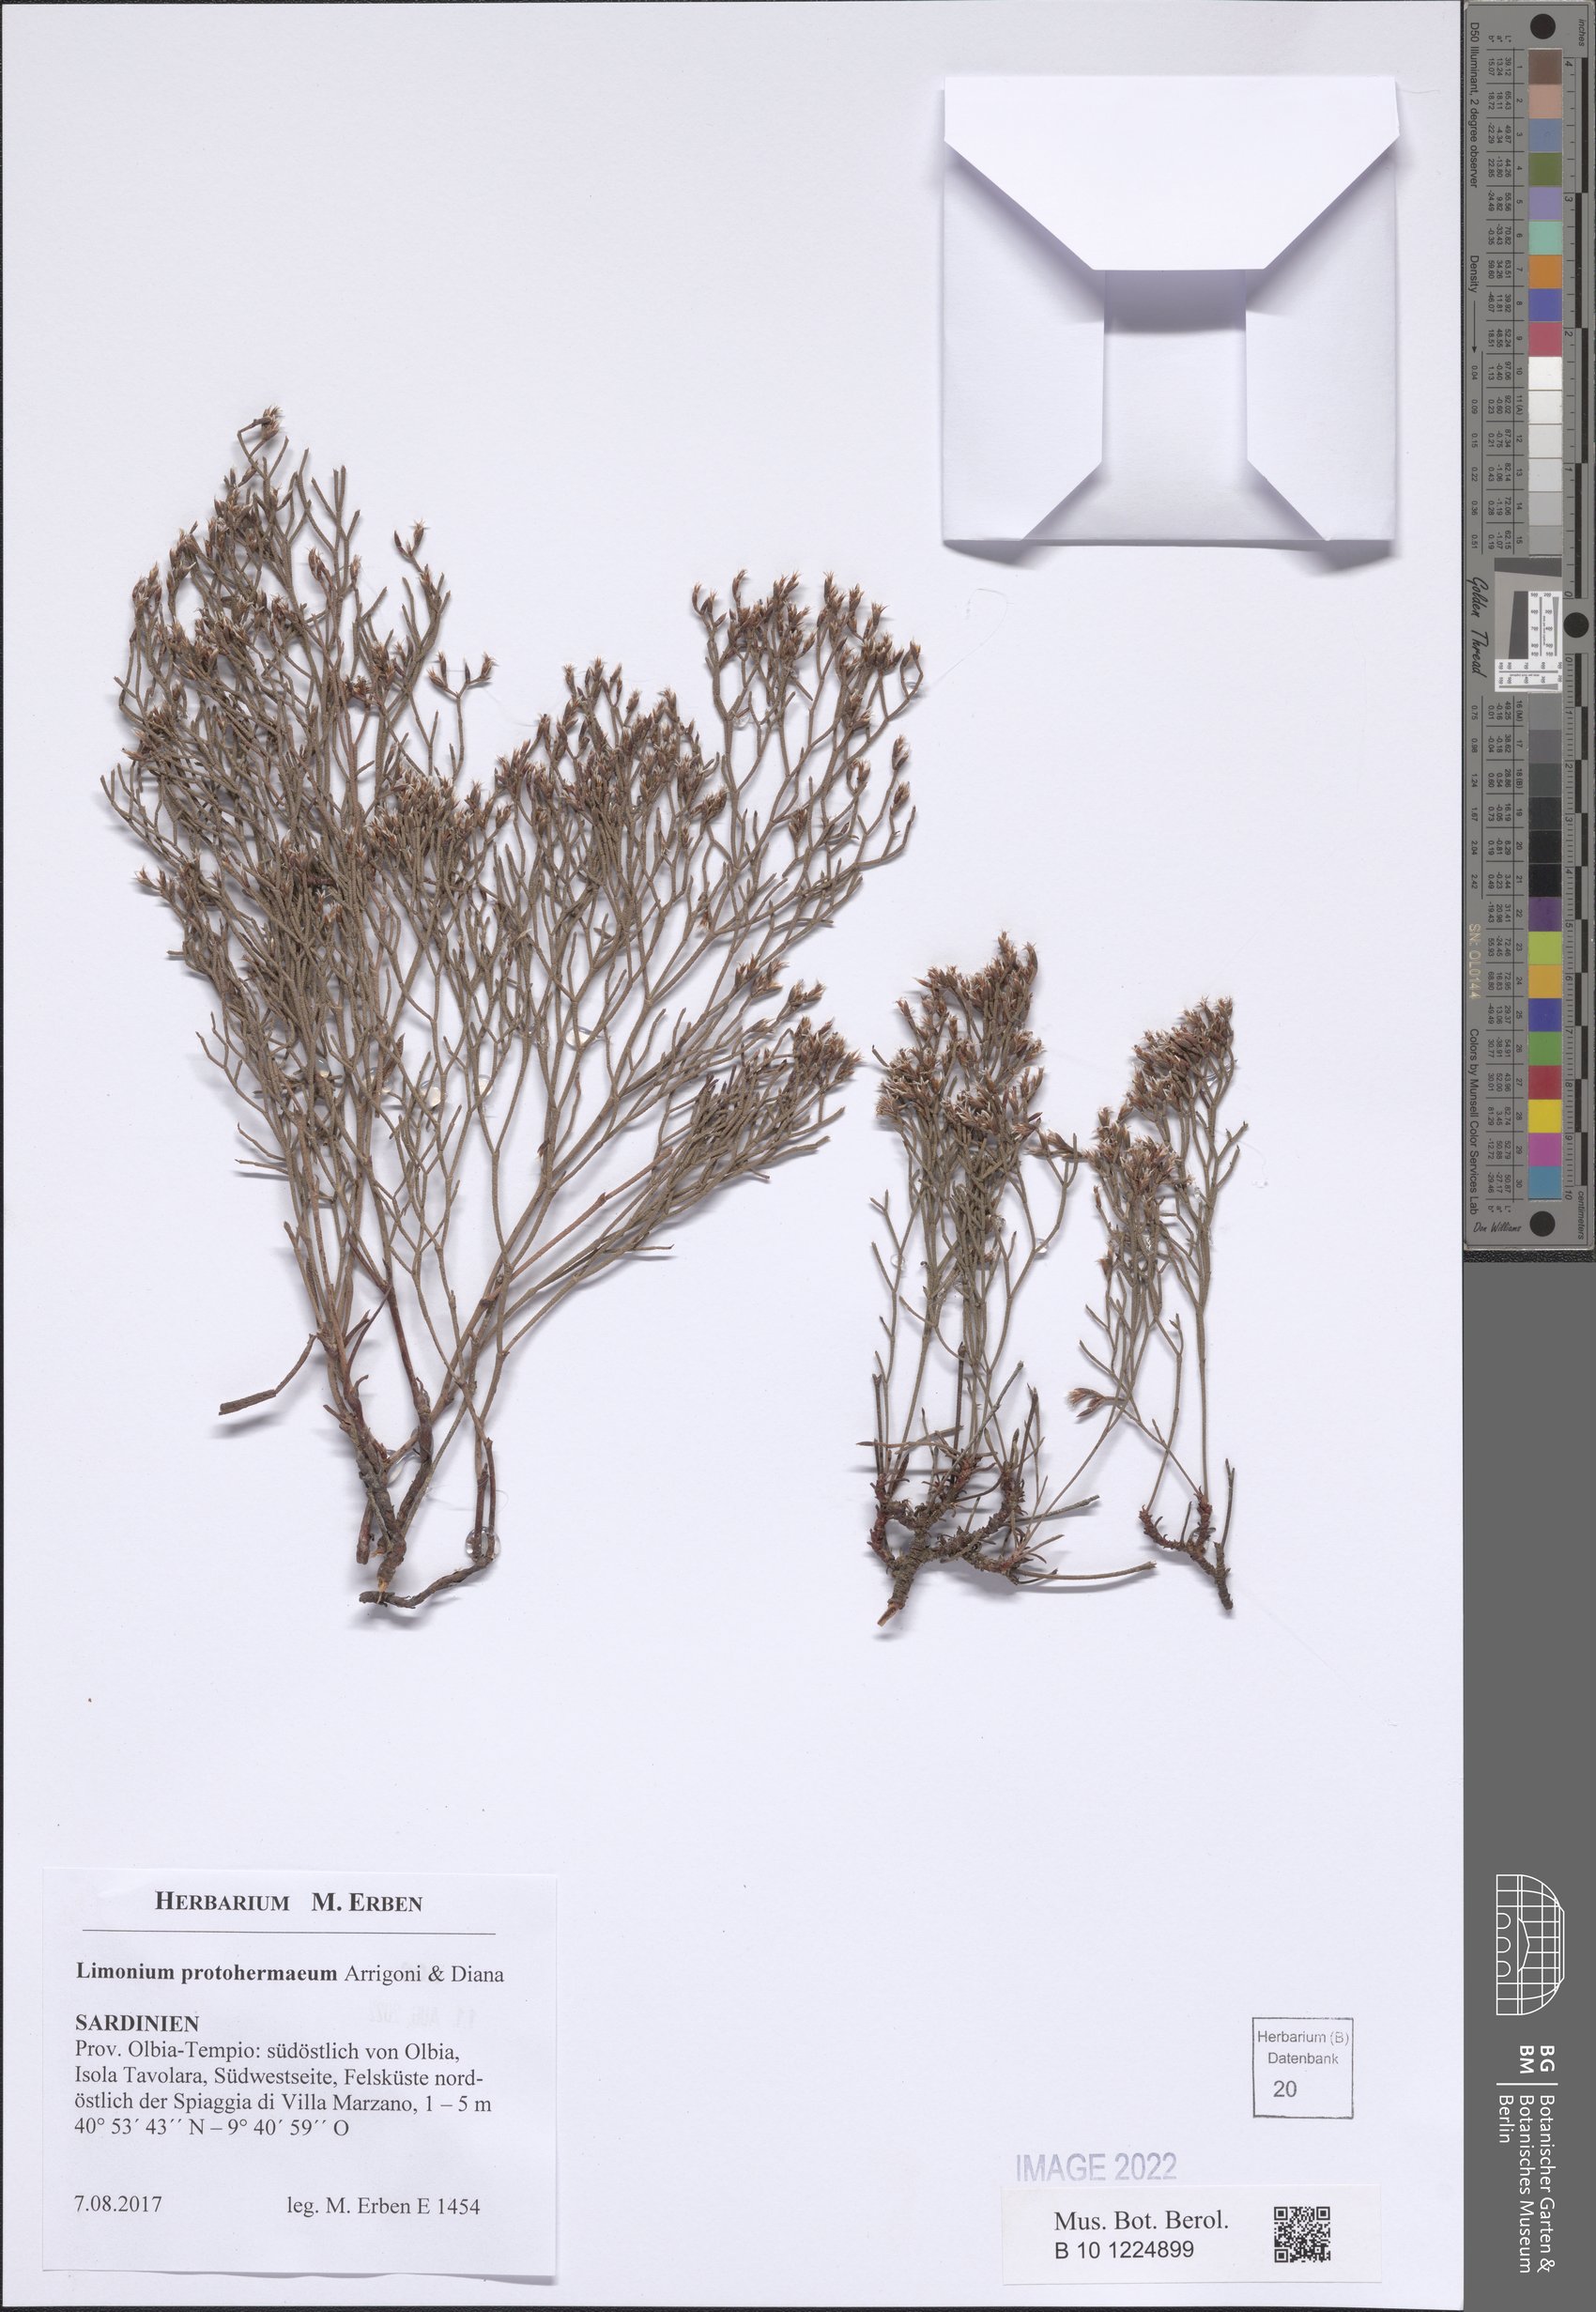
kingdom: Plantae
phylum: Tracheophyta
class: Magnoliopsida
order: Caryophyllales
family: Plumbaginaceae
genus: Limonium
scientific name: Limonium protohermaeum
